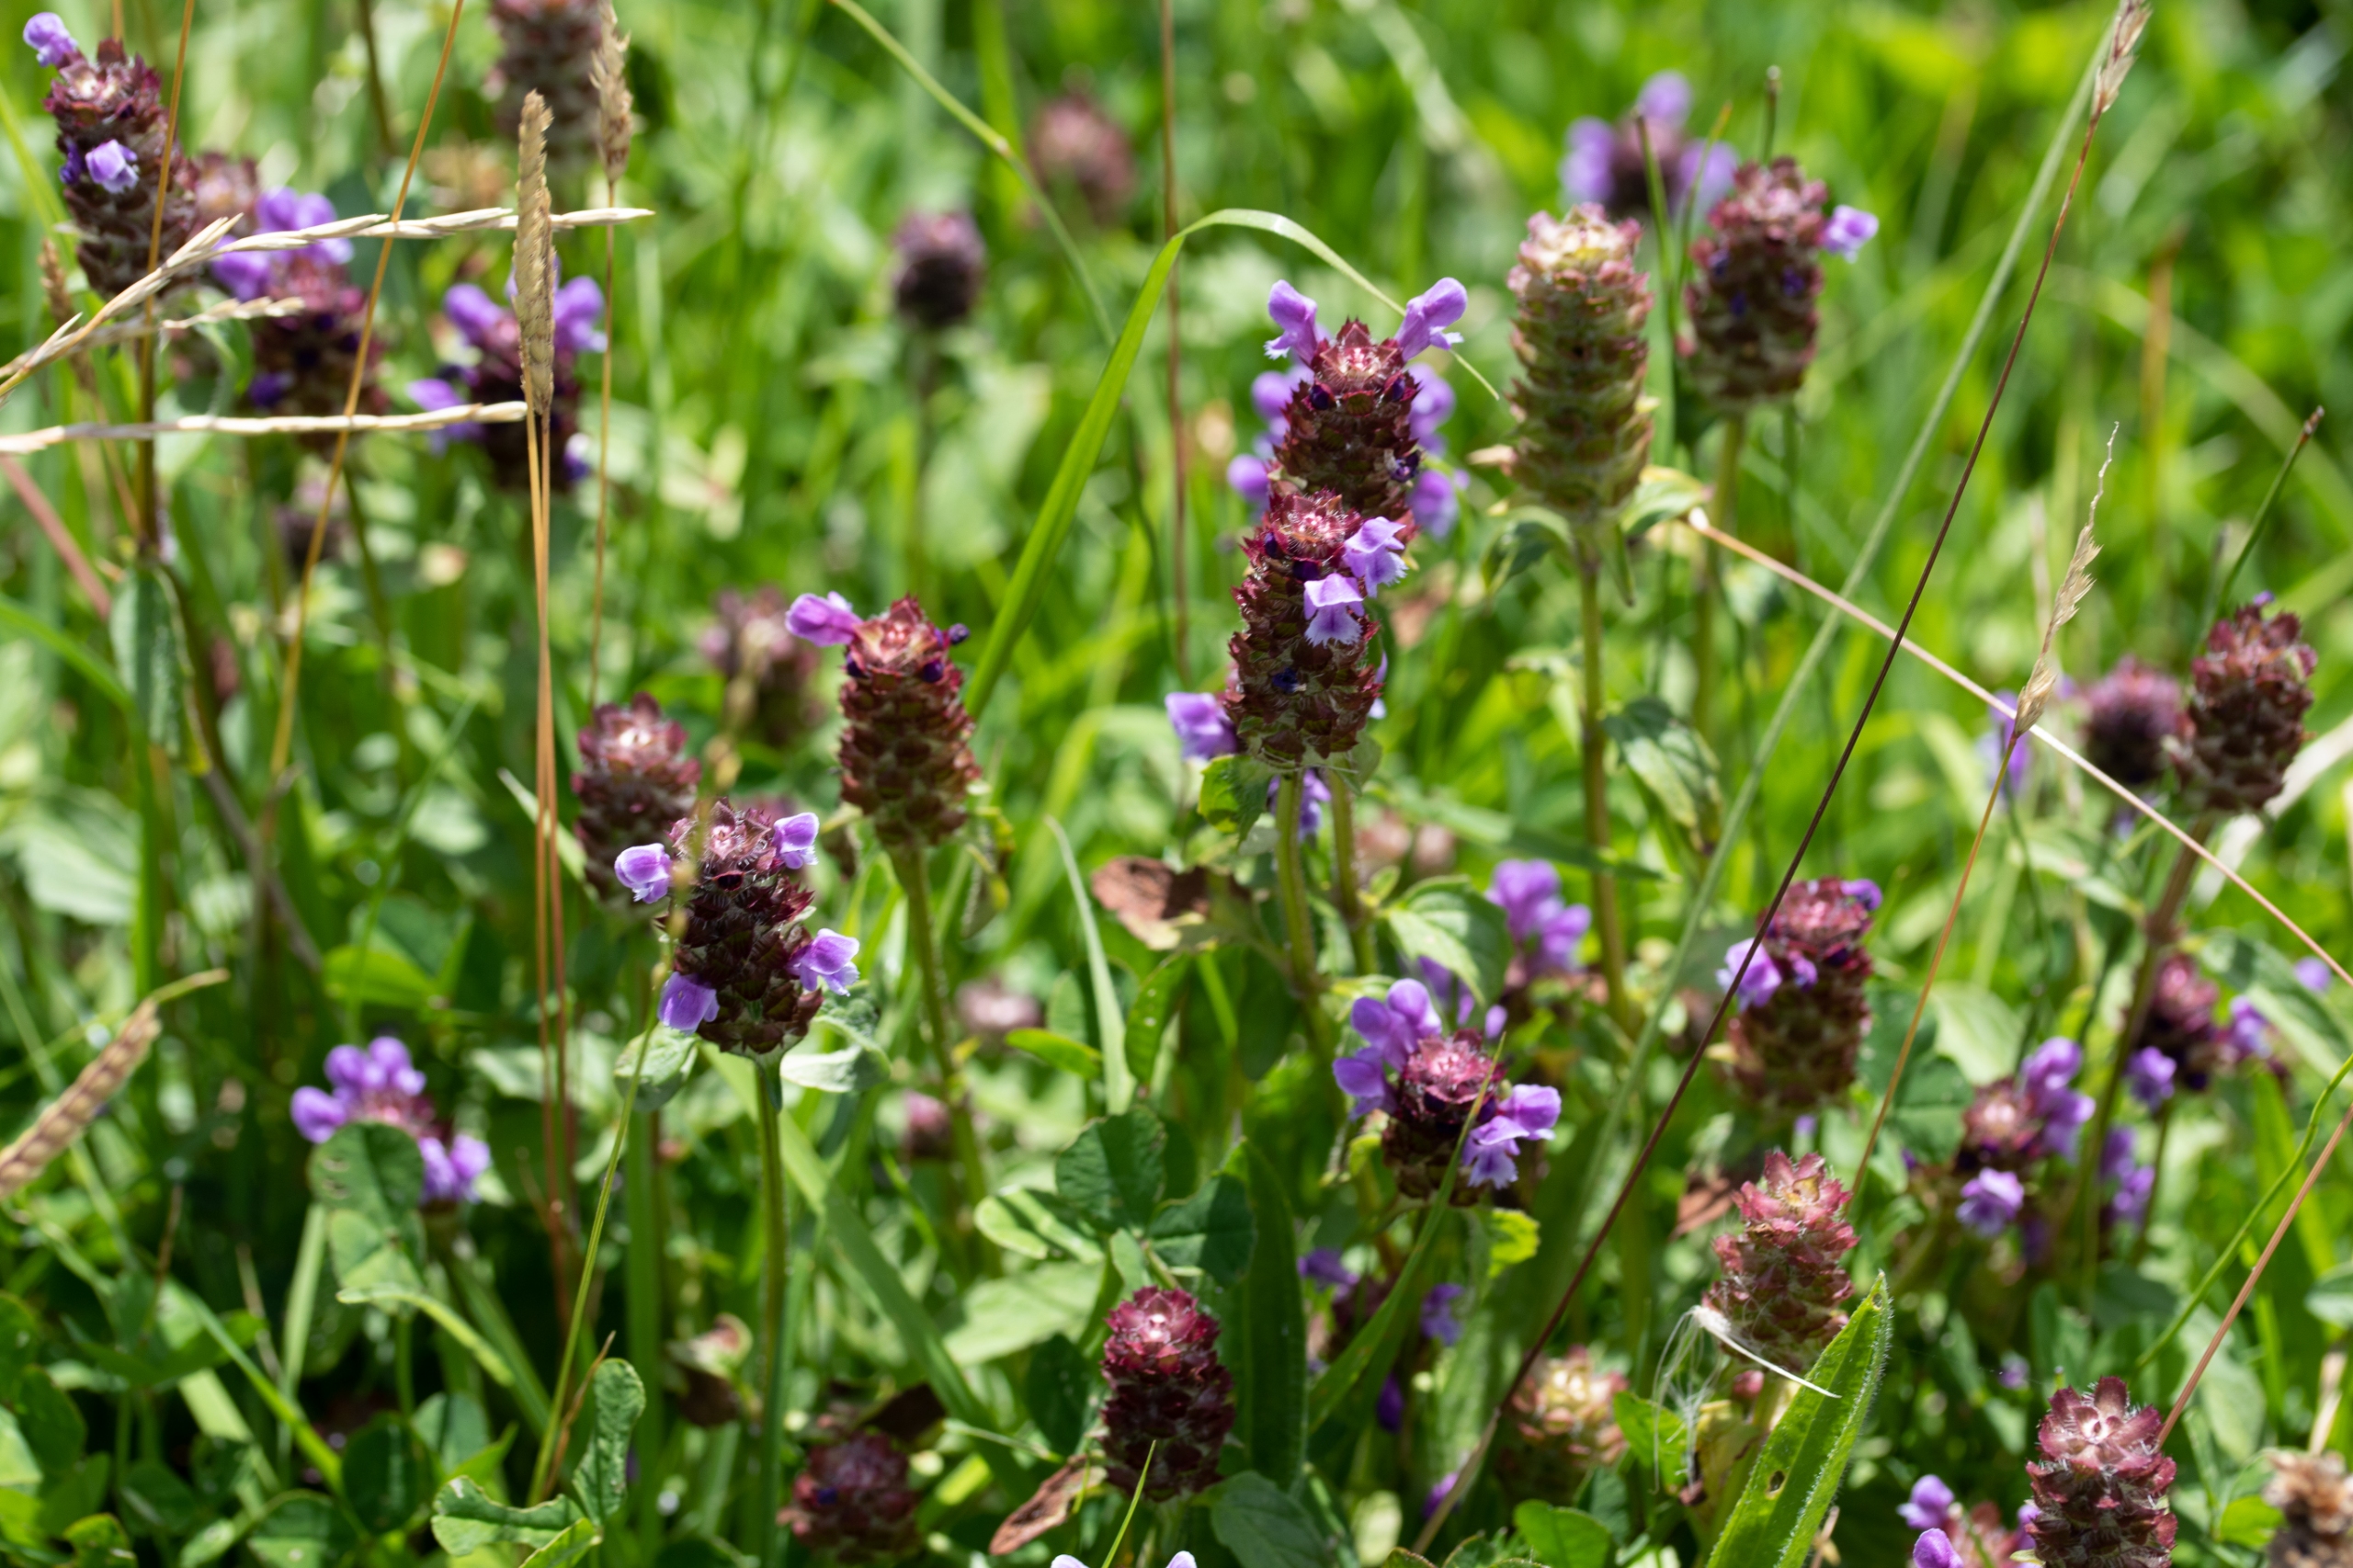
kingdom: Plantae
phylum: Tracheophyta
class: Magnoliopsida
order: Lamiales
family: Lamiaceae
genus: Prunella
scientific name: Prunella vulgaris
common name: Almindelig brunelle
